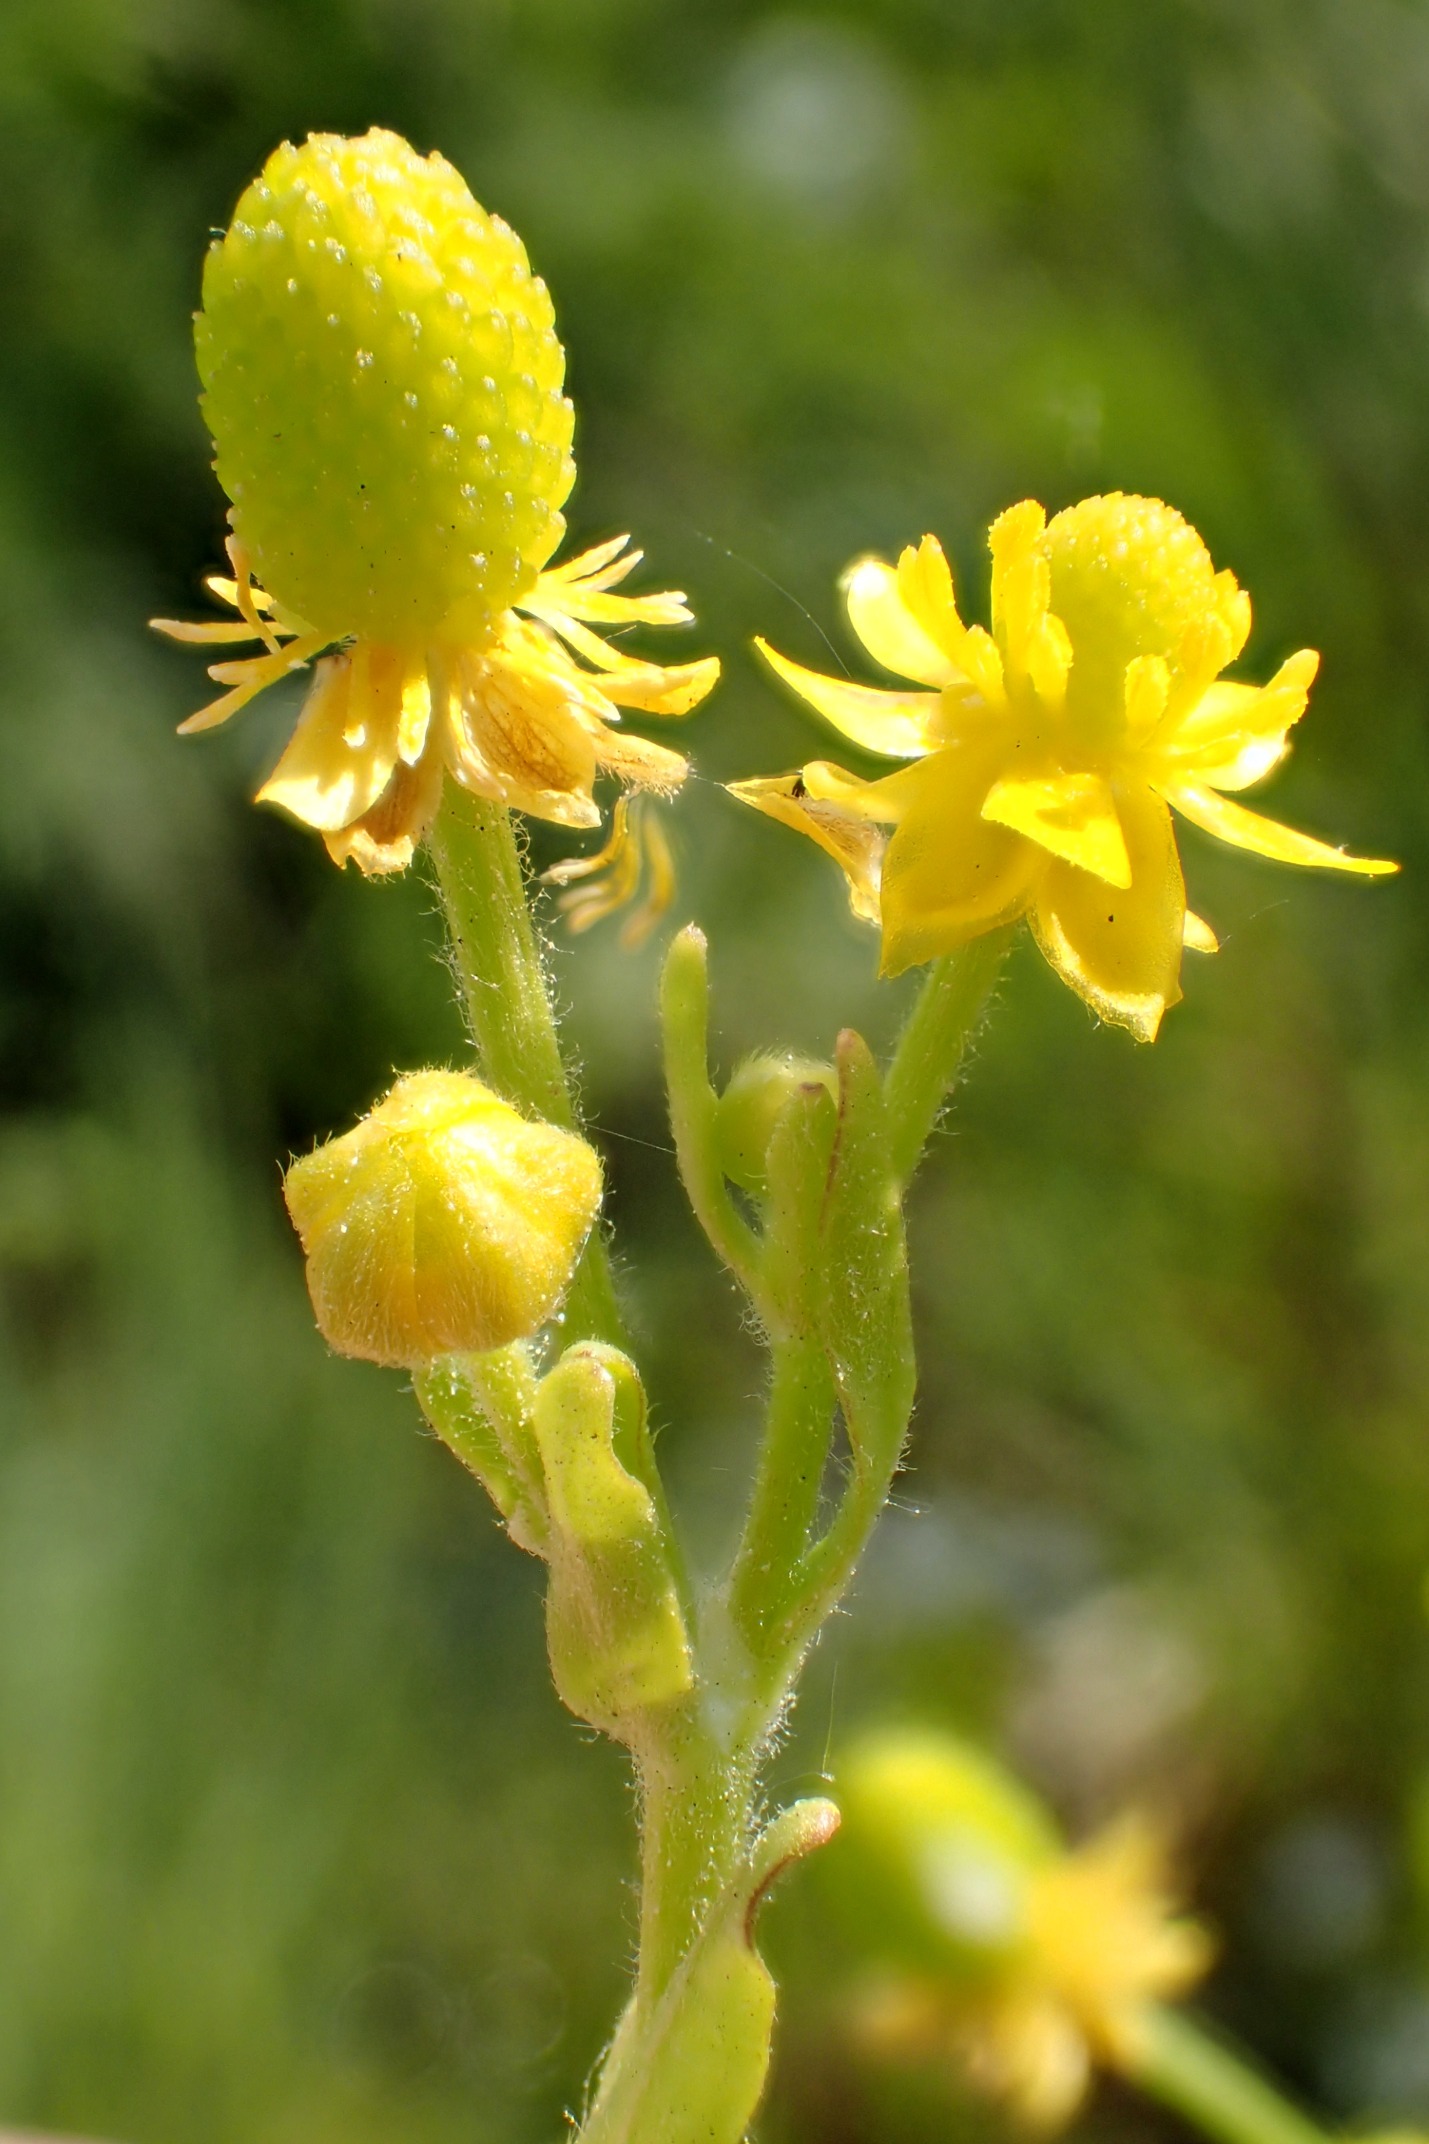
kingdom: Plantae
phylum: Tracheophyta
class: Magnoliopsida
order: Ranunculales
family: Ranunculaceae
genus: Ranunculus
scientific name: Ranunculus sceleratus
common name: Tigger-ranunkel
